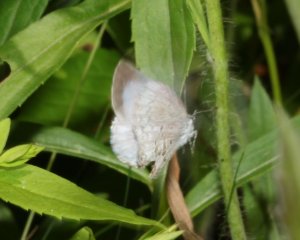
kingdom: Animalia
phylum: Arthropoda
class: Insecta
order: Lepidoptera
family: Lycaenidae
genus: Celastrina
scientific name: Celastrina serotina
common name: Cherry Gall Azure
